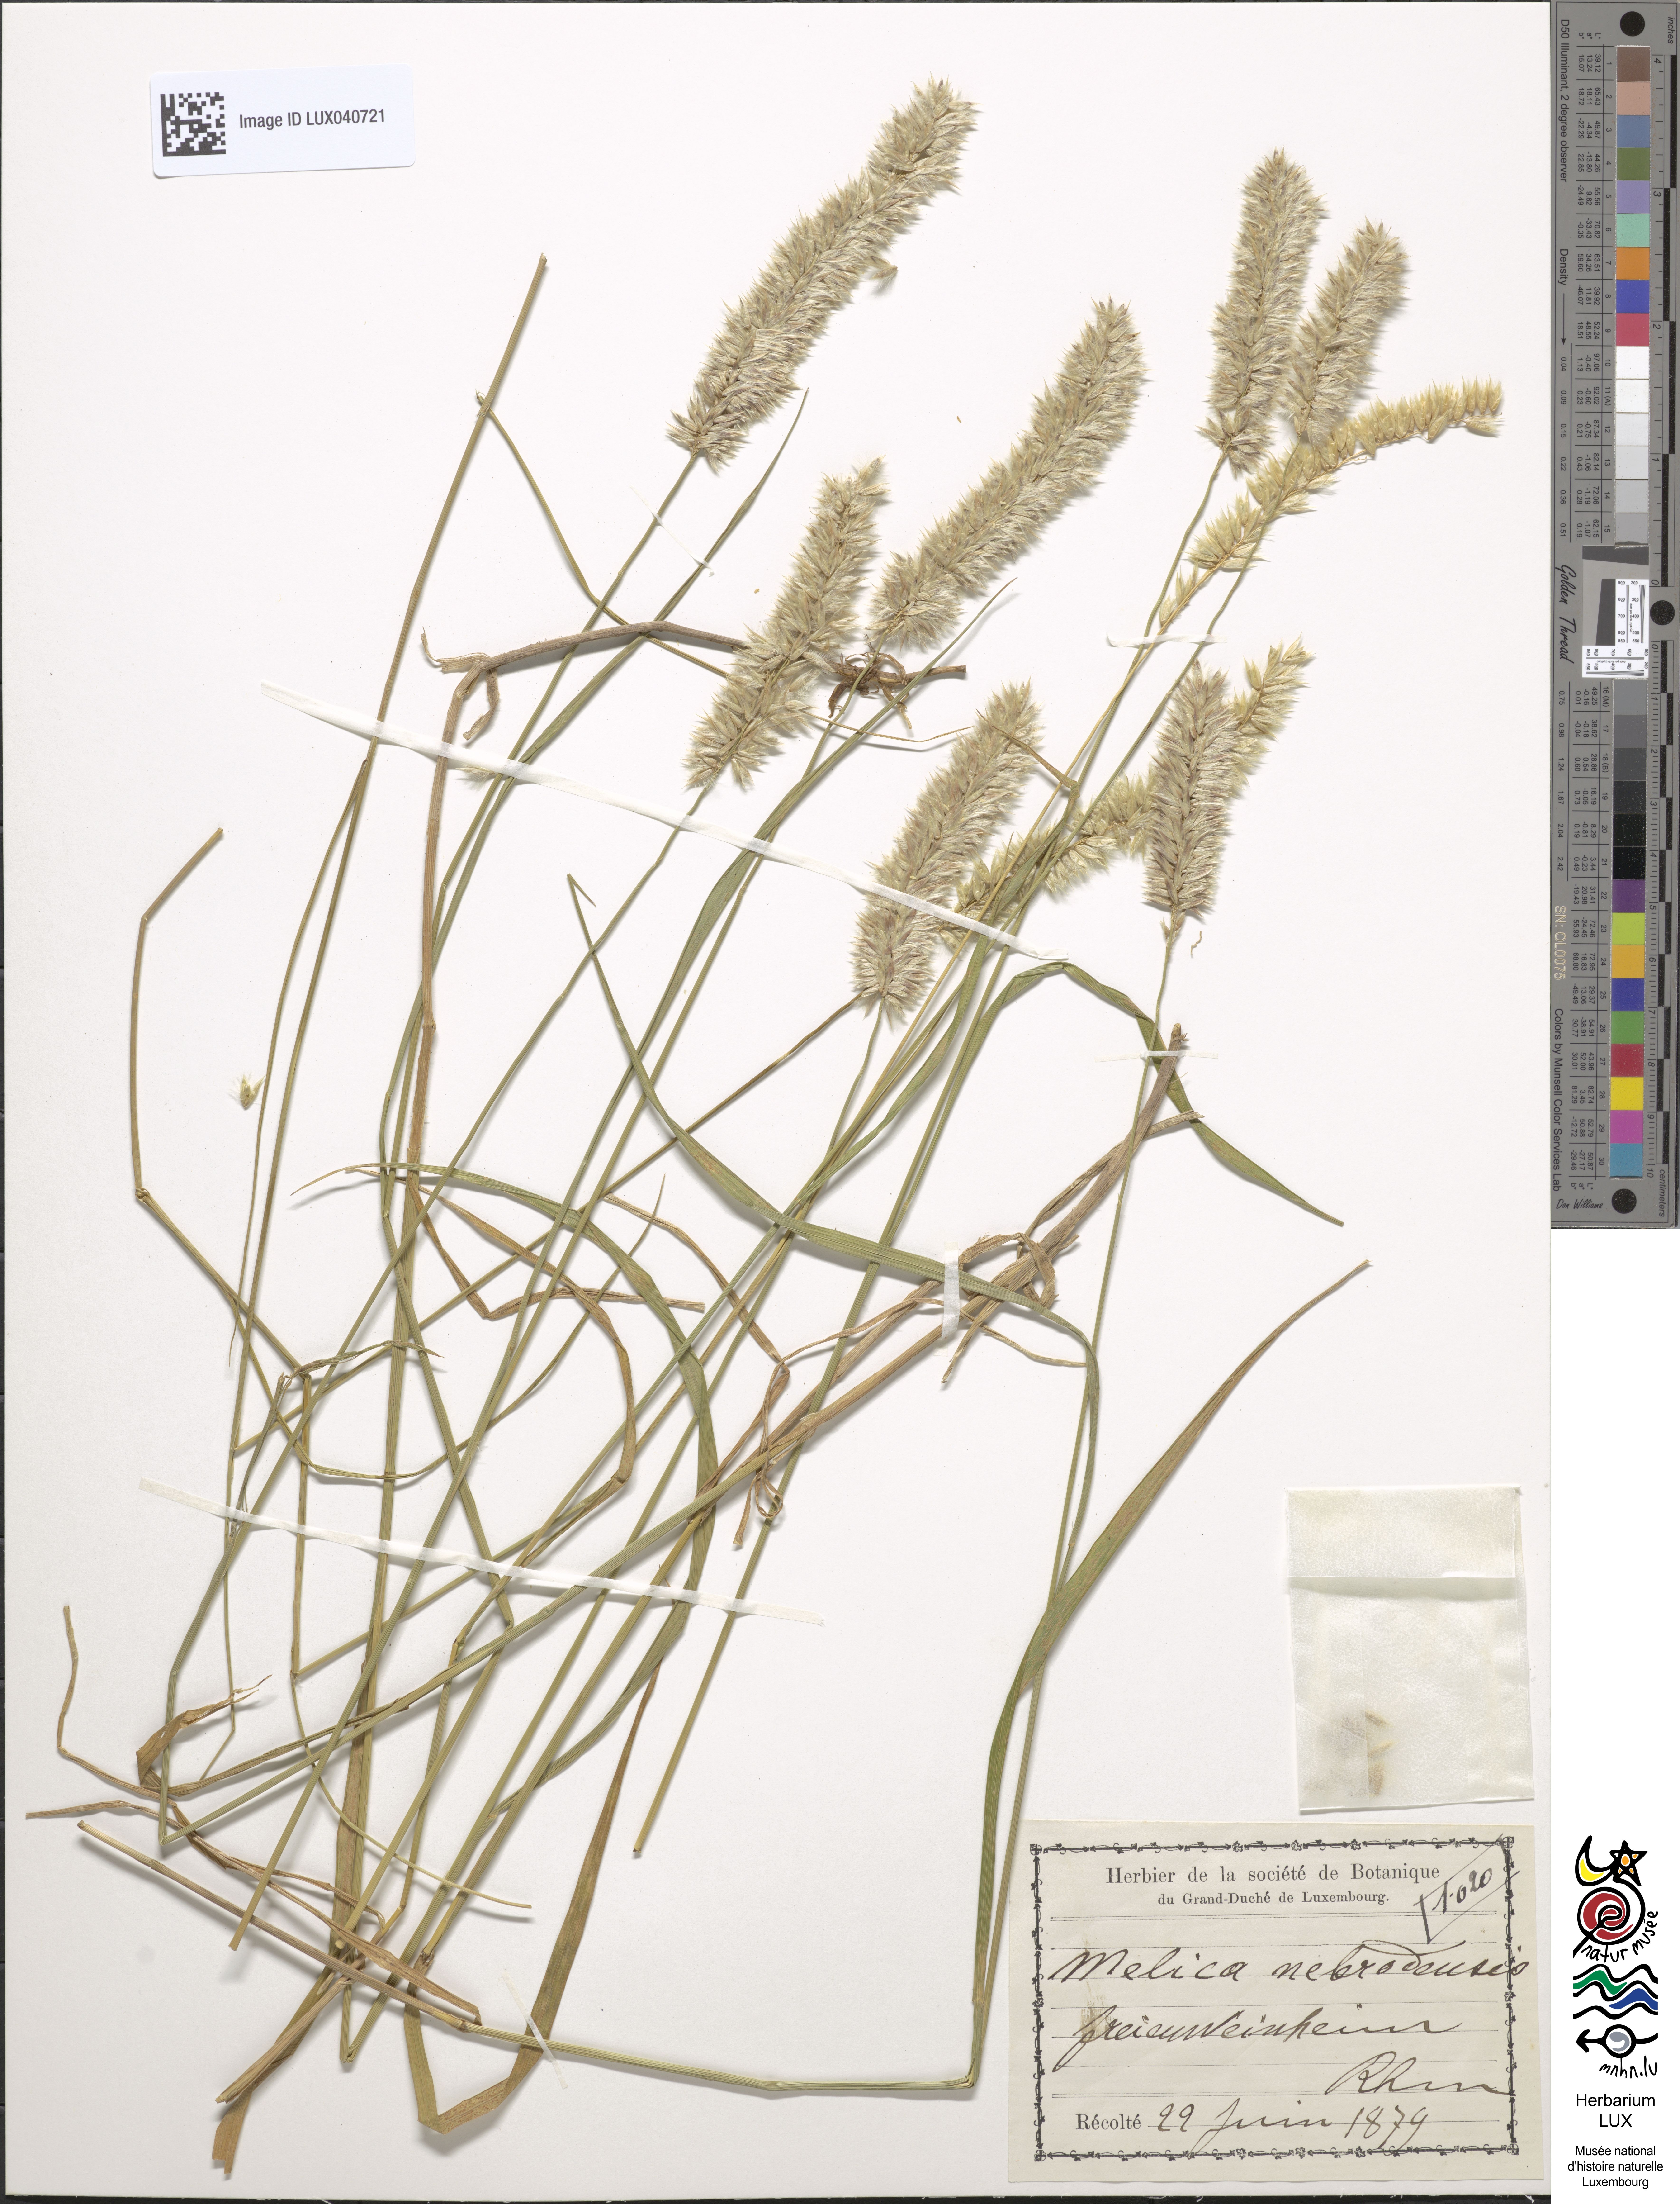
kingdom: Plantae
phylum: Tracheophyta
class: Liliopsida
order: Poales
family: Poaceae
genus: Melica
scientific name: Melica ciliata
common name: Hairy melicgrass
